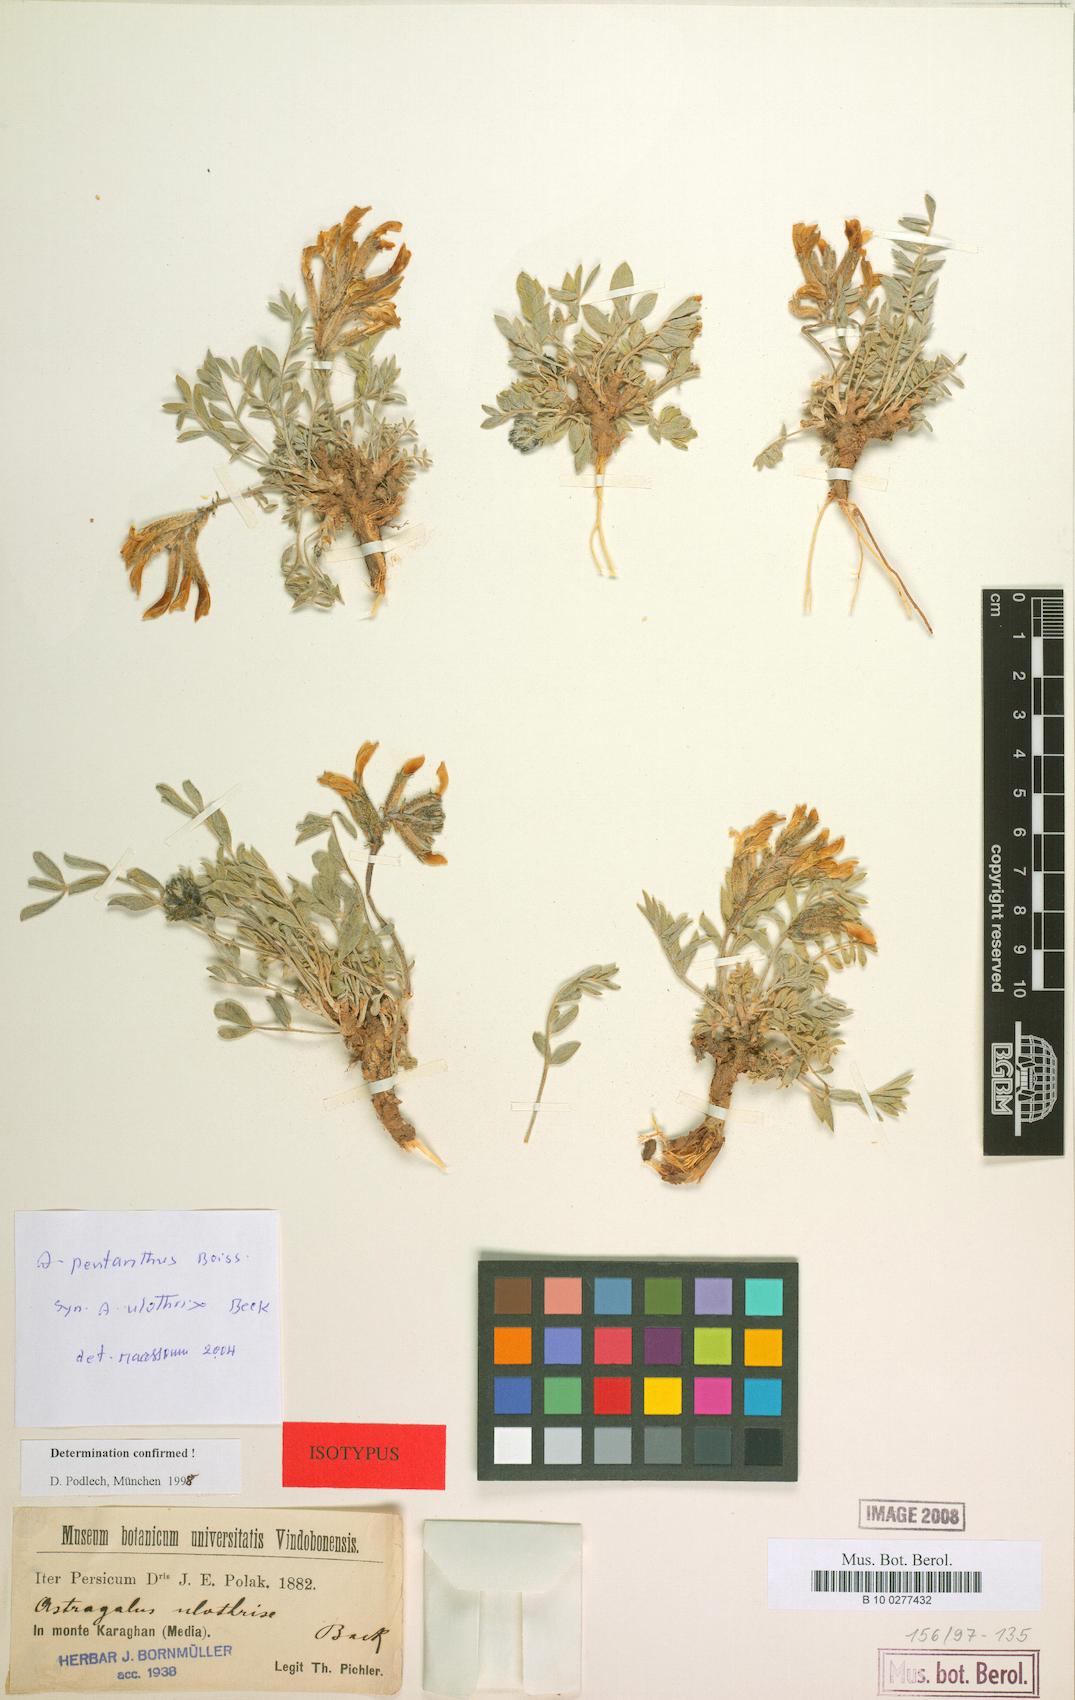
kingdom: Plantae
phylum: Tracheophyta
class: Magnoliopsida
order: Fabales
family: Fabaceae
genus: Astragalus
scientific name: Astragalus pentanthus
